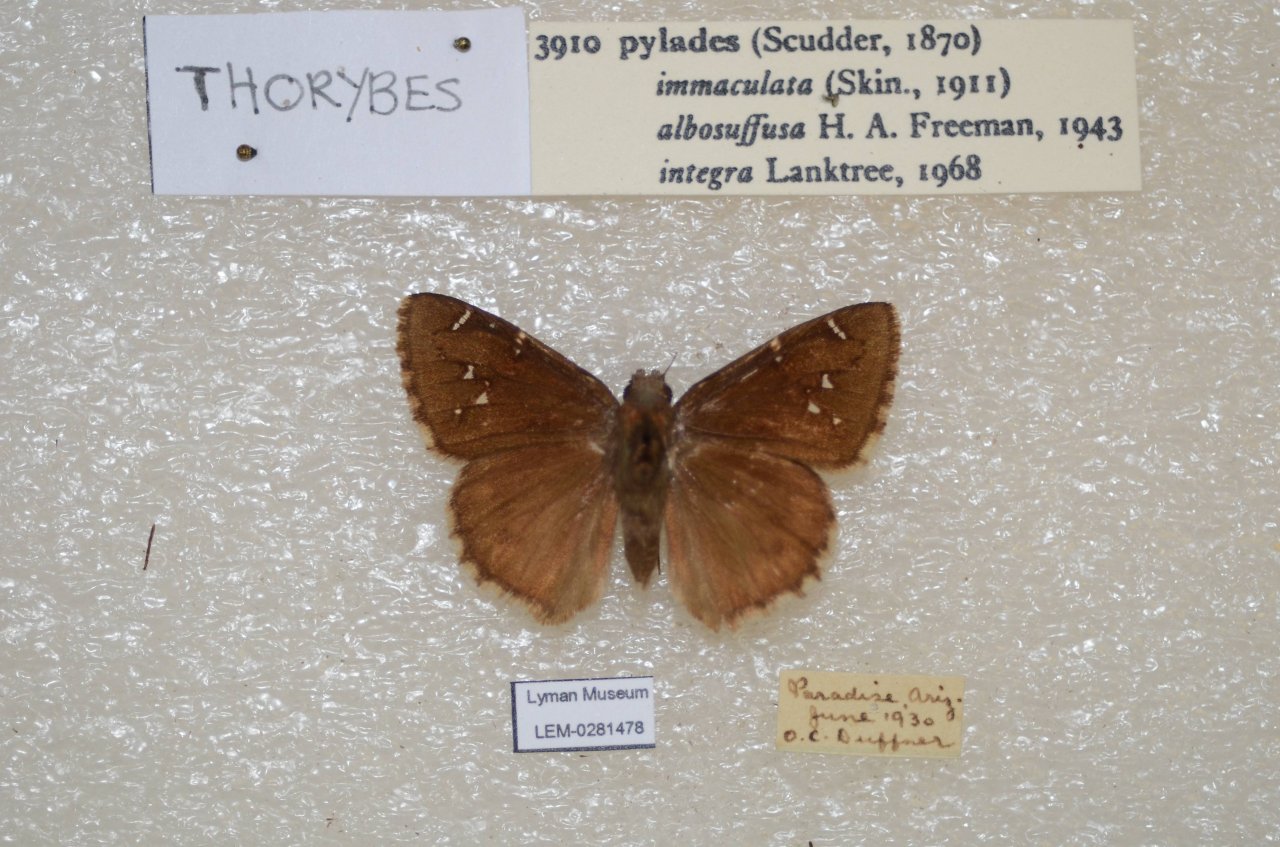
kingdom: Animalia
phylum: Arthropoda
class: Insecta
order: Lepidoptera
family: Hesperiidae
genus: Autochton
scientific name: Autochton
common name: Northern Cloudywing
